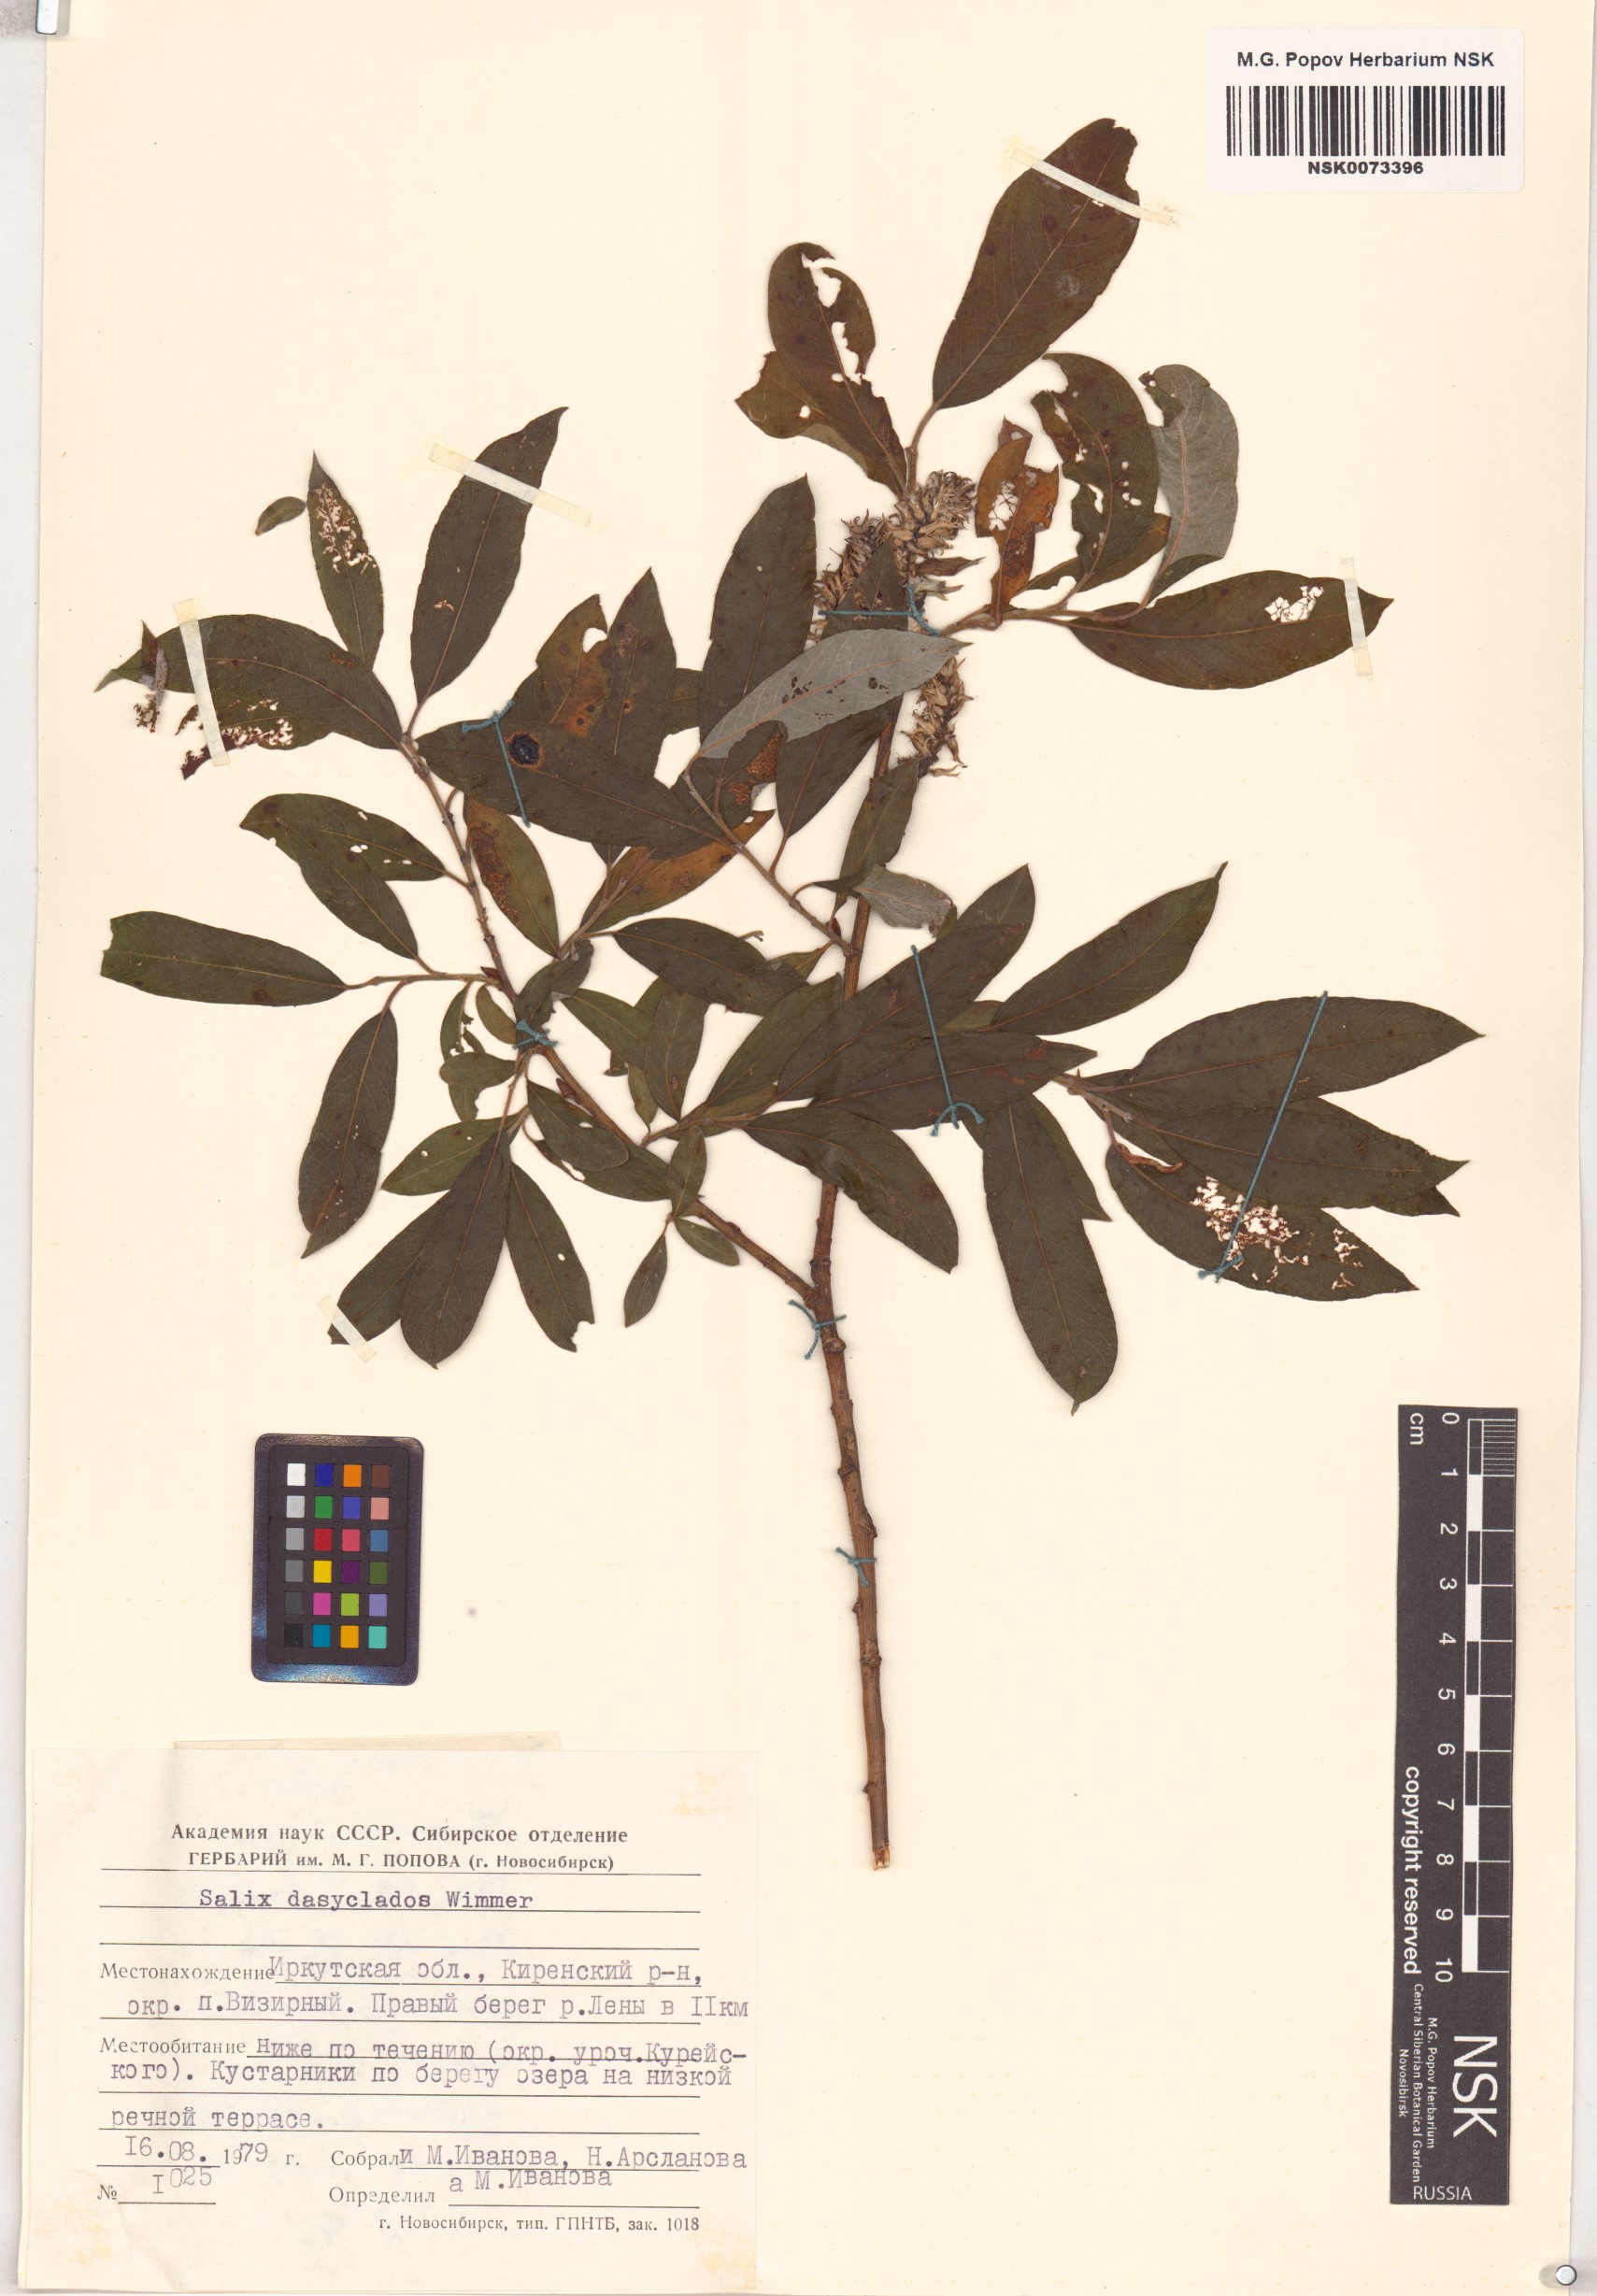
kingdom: Plantae
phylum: Tracheophyta
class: Magnoliopsida
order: Malpighiales
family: Salicaceae
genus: Salix
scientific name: Salix gmelinii
